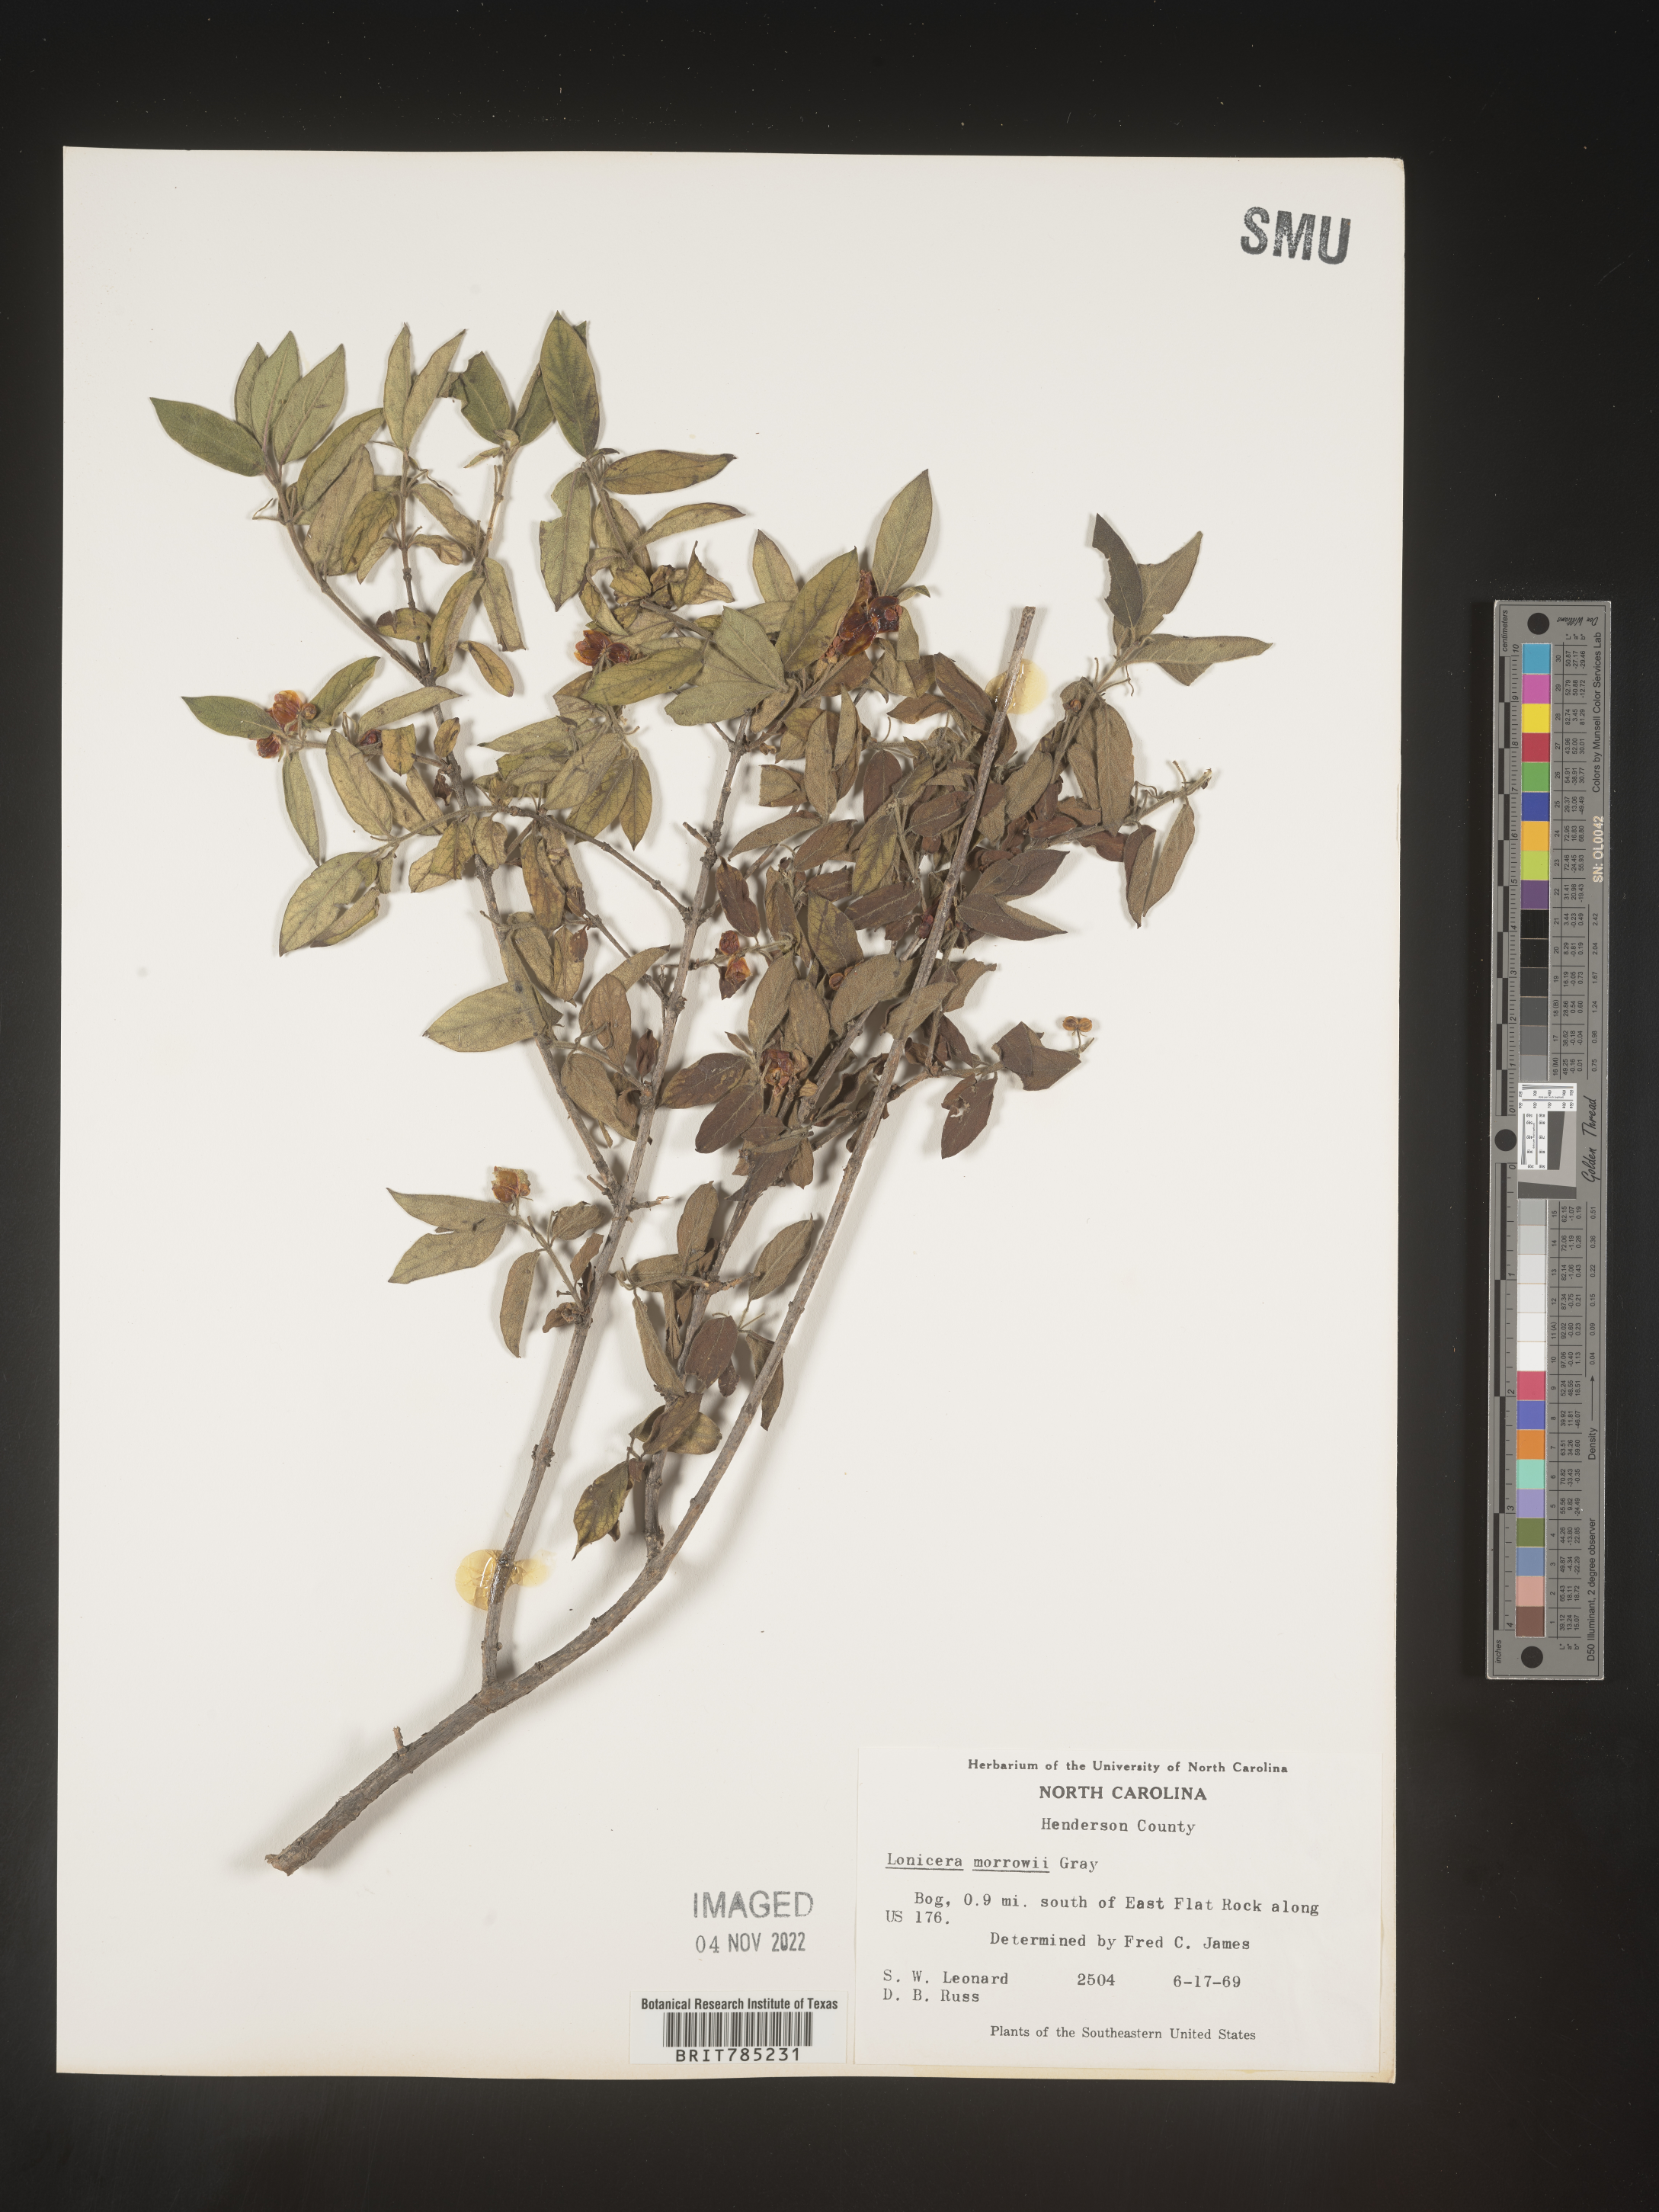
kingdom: Plantae
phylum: Tracheophyta
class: Magnoliopsida
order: Dipsacales
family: Caprifoliaceae
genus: Lonicera
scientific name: Lonicera
